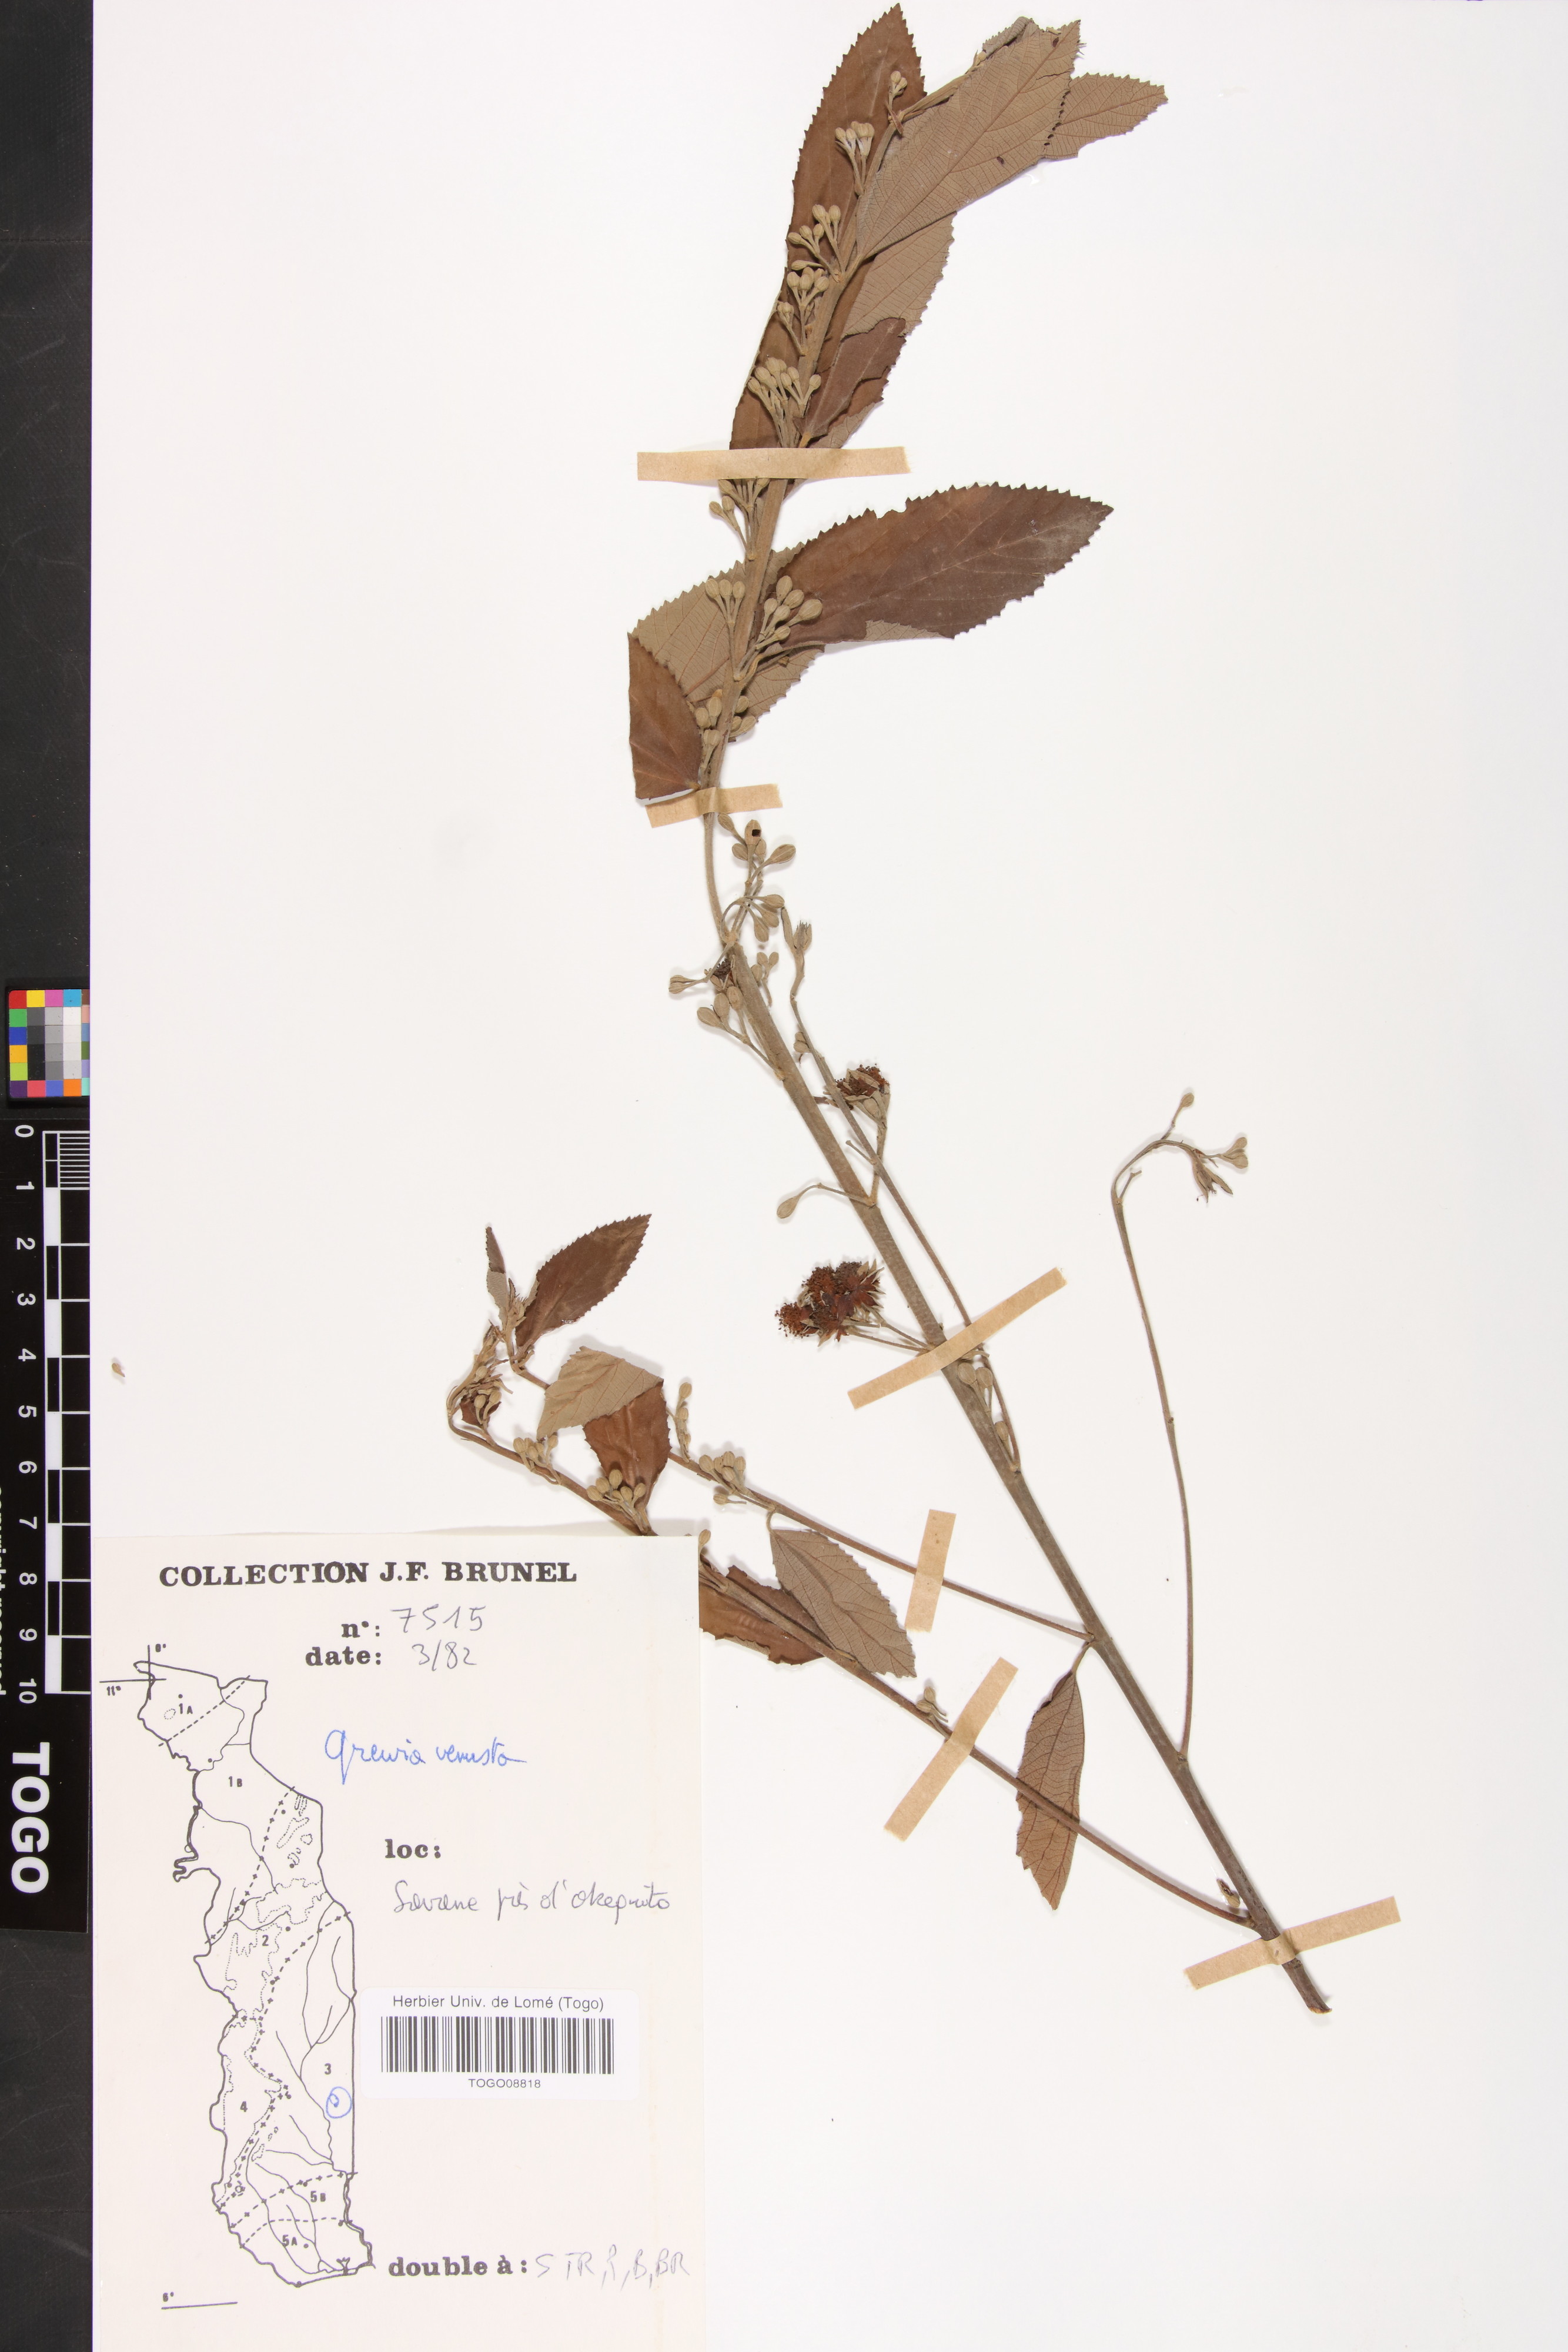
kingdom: Plantae
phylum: Tracheophyta
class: Magnoliopsida
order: Malvales
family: Malvaceae
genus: Grewia
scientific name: Grewia mollis
